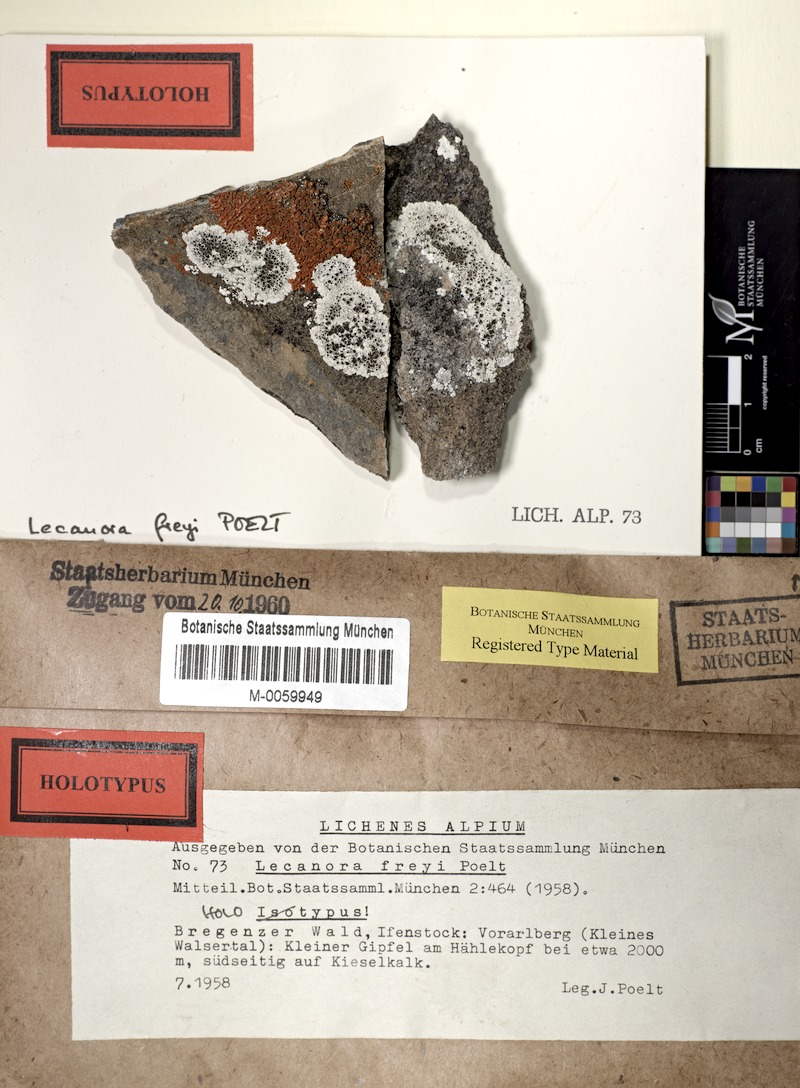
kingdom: Fungi
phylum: Ascomycota
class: Lecanoromycetes
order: Lecanorales
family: Lecanoraceae
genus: Lecanora
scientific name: Lecanora freyi
